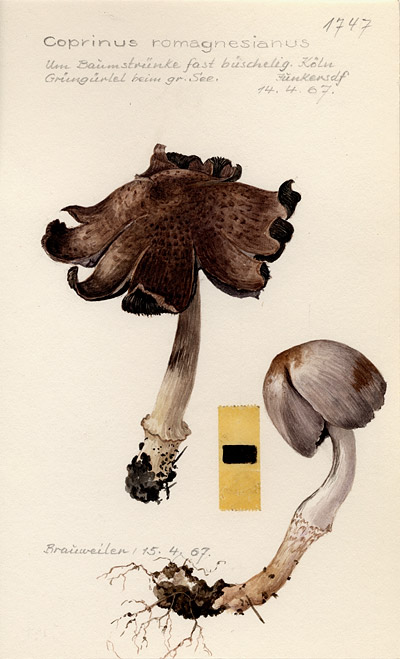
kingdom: Fungi
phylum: Basidiomycota
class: Agaricomycetes
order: Agaricales
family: Psathyrellaceae
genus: Coprinopsis
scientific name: Coprinopsis romagnesiana
